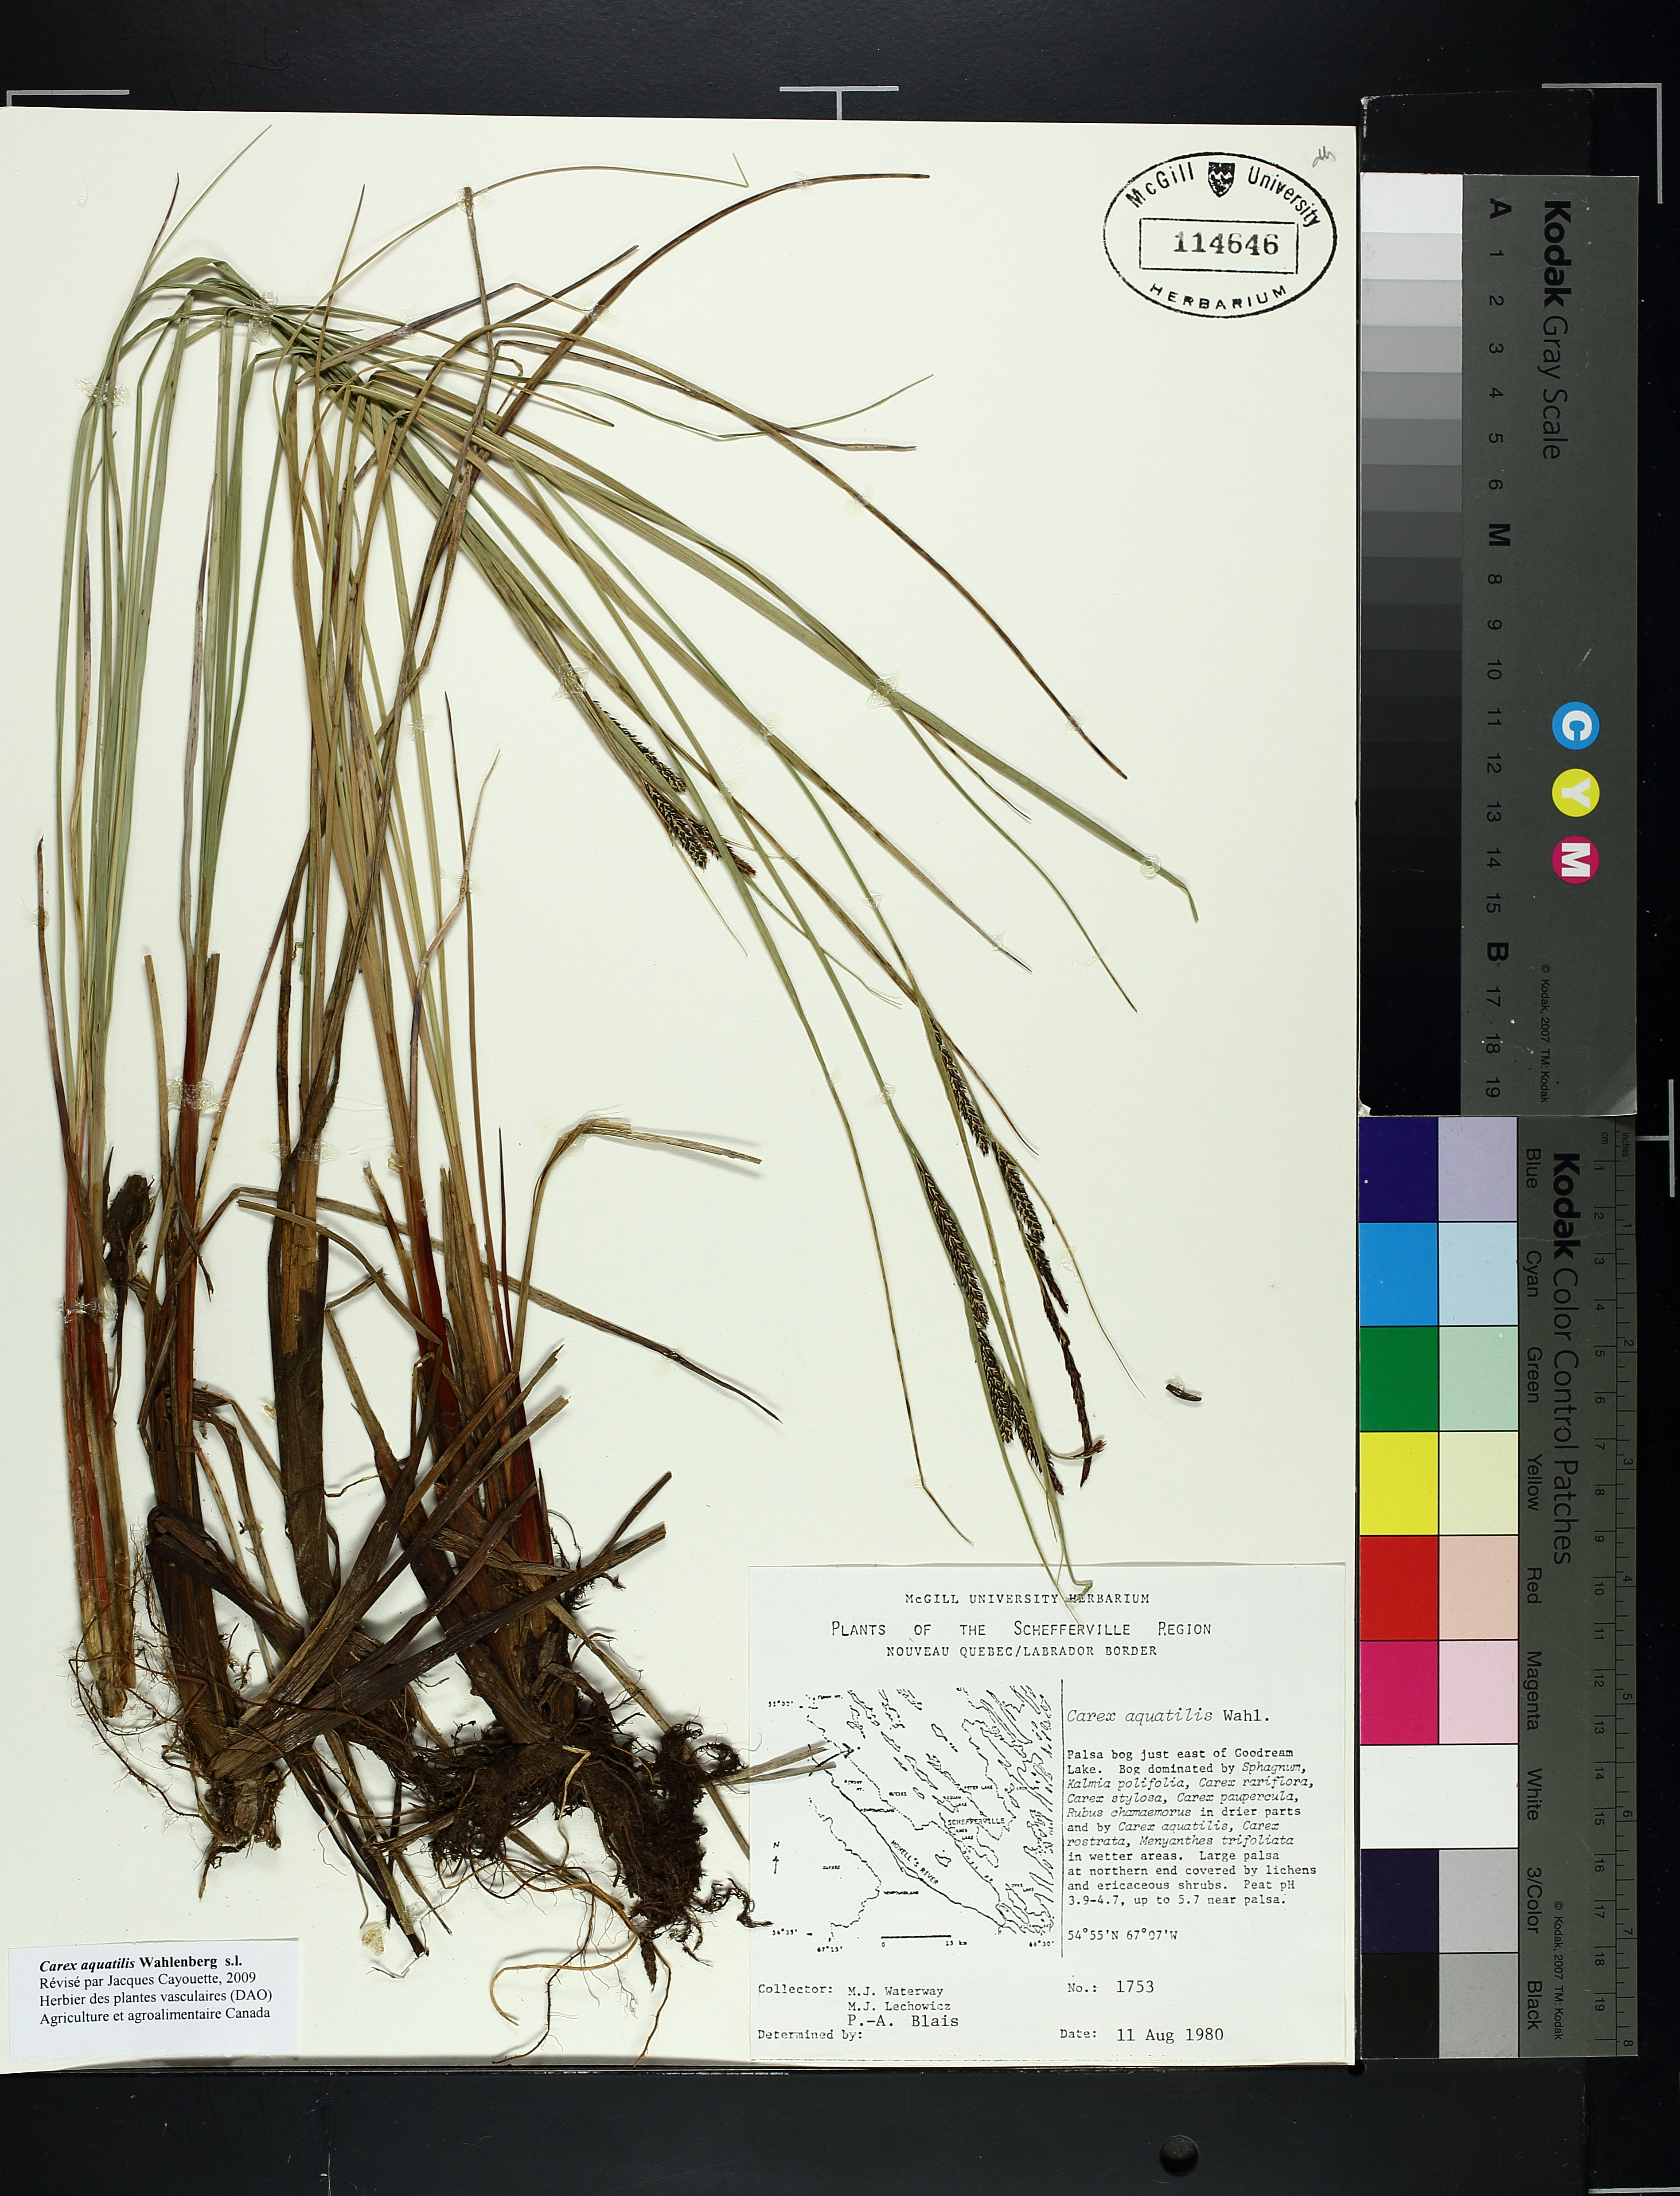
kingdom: Plantae
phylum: Tracheophyta
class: Liliopsida
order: Poales
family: Cyperaceae
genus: Carex
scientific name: Carex aquatilis
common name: Water sedge
